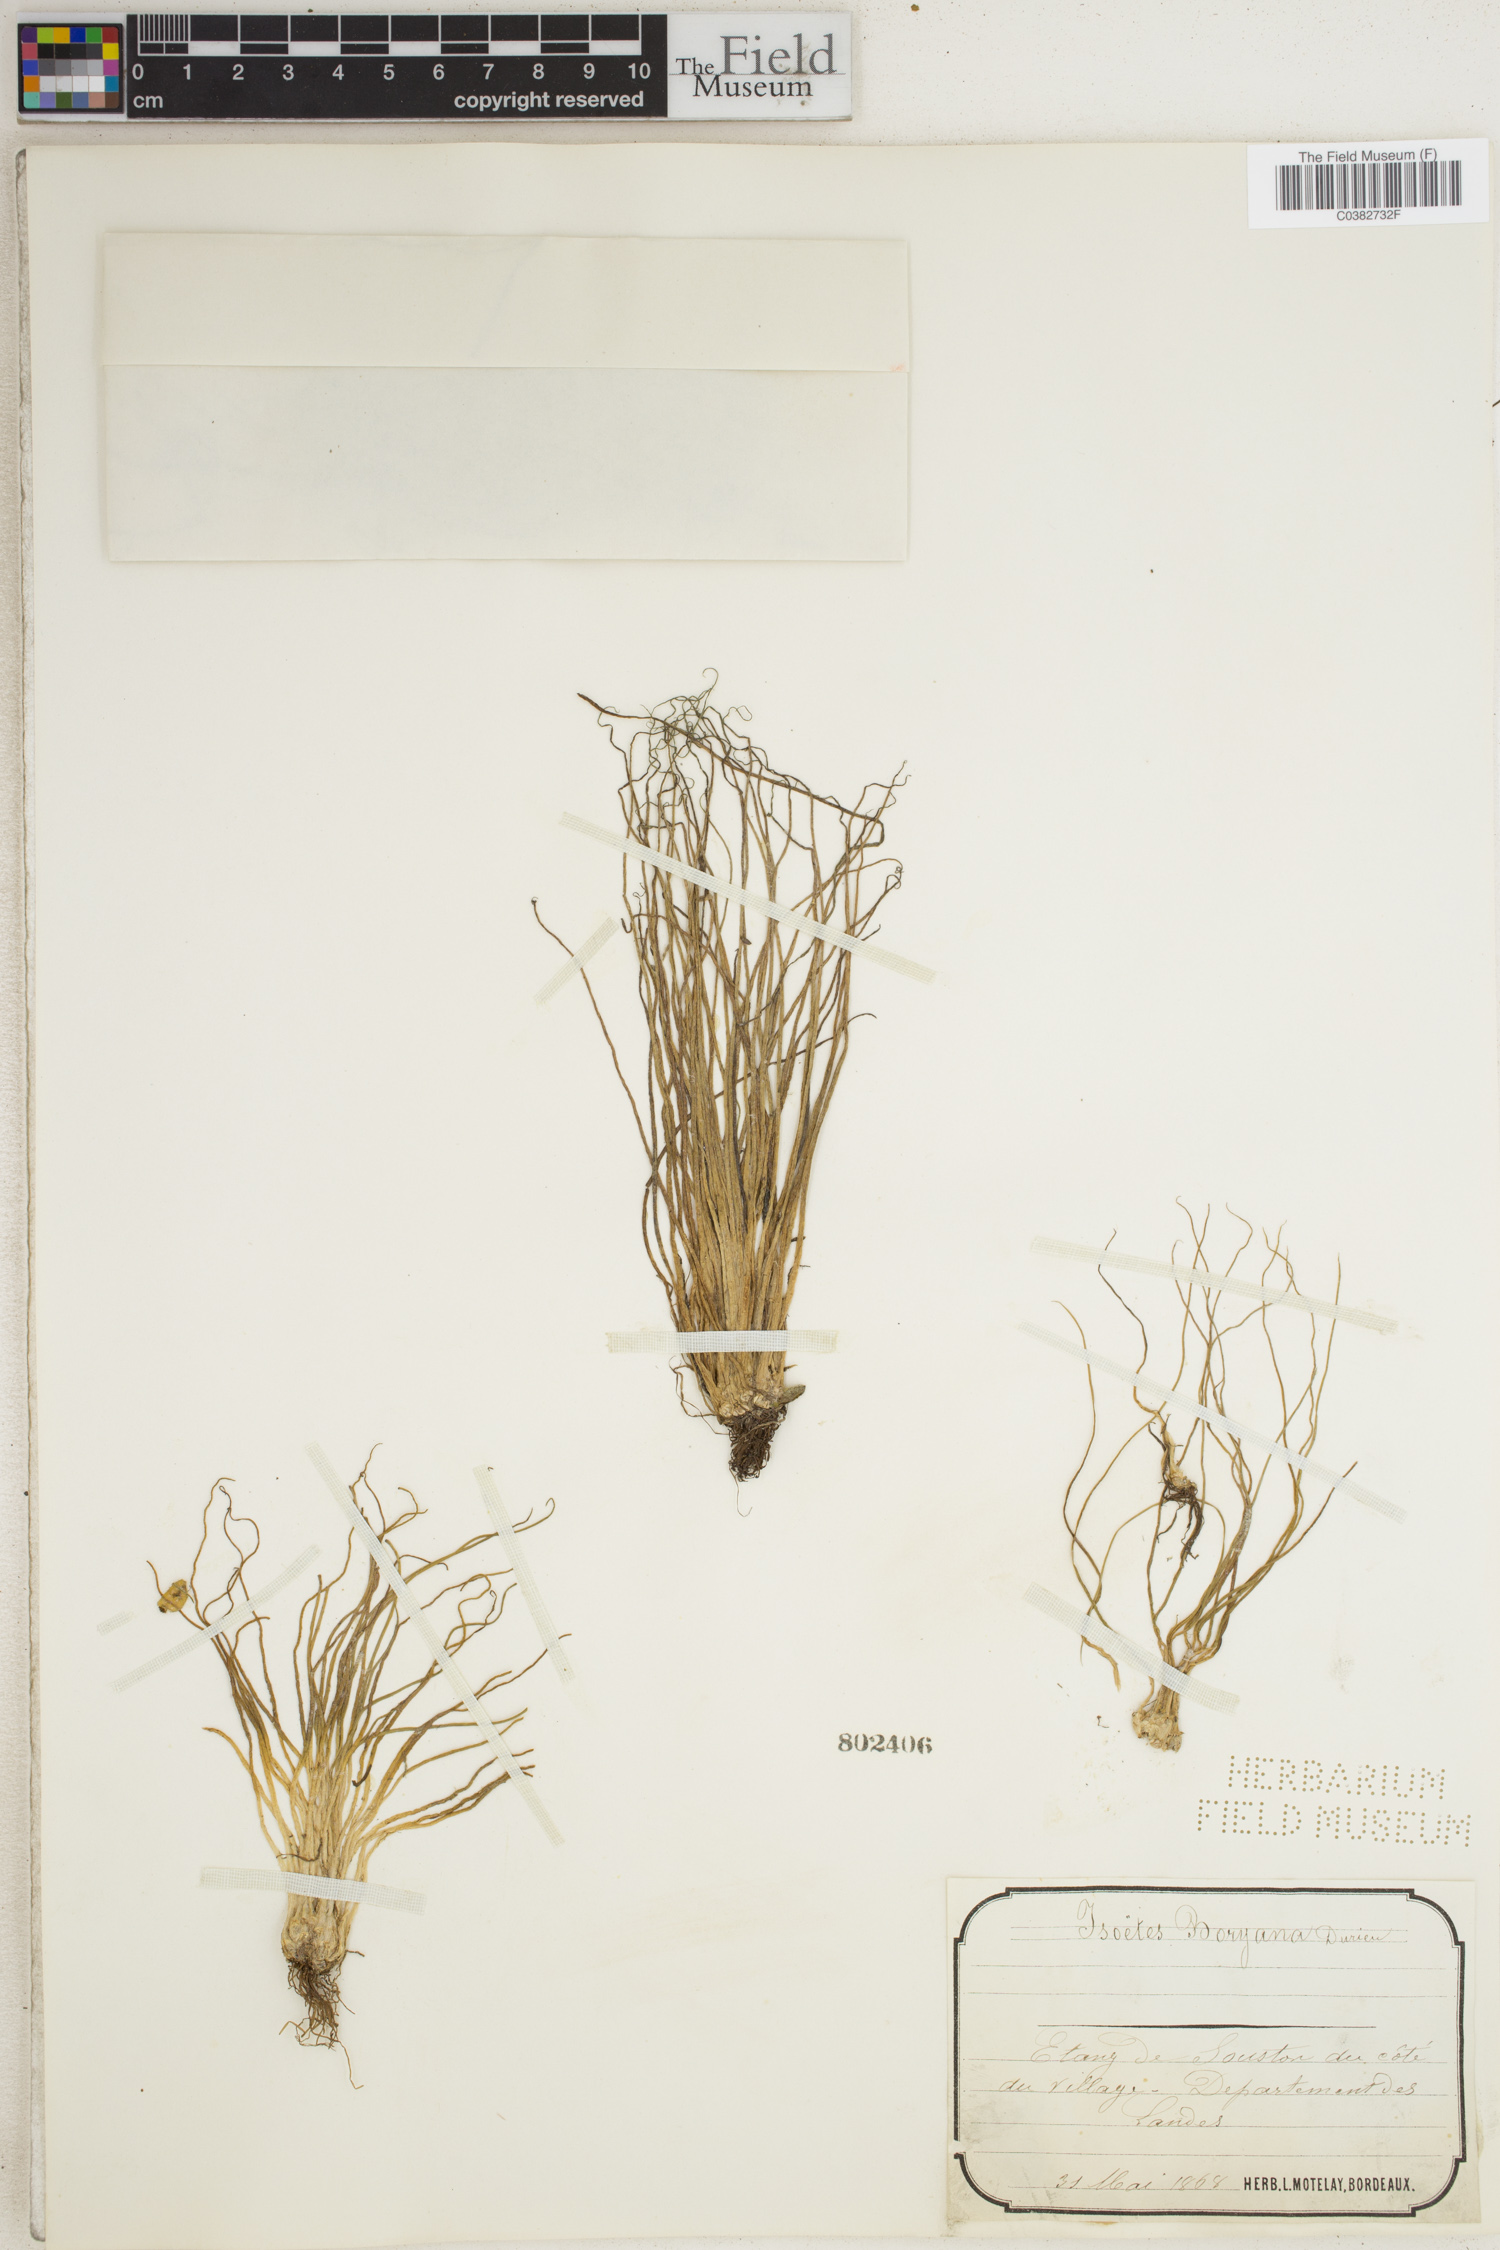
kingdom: Plantae
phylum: Tracheophyta
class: Lycopodiopsida
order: Isoetales
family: Isoetaceae
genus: Isoetes
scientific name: Isoetes boryana
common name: Gascoyne quillwort
